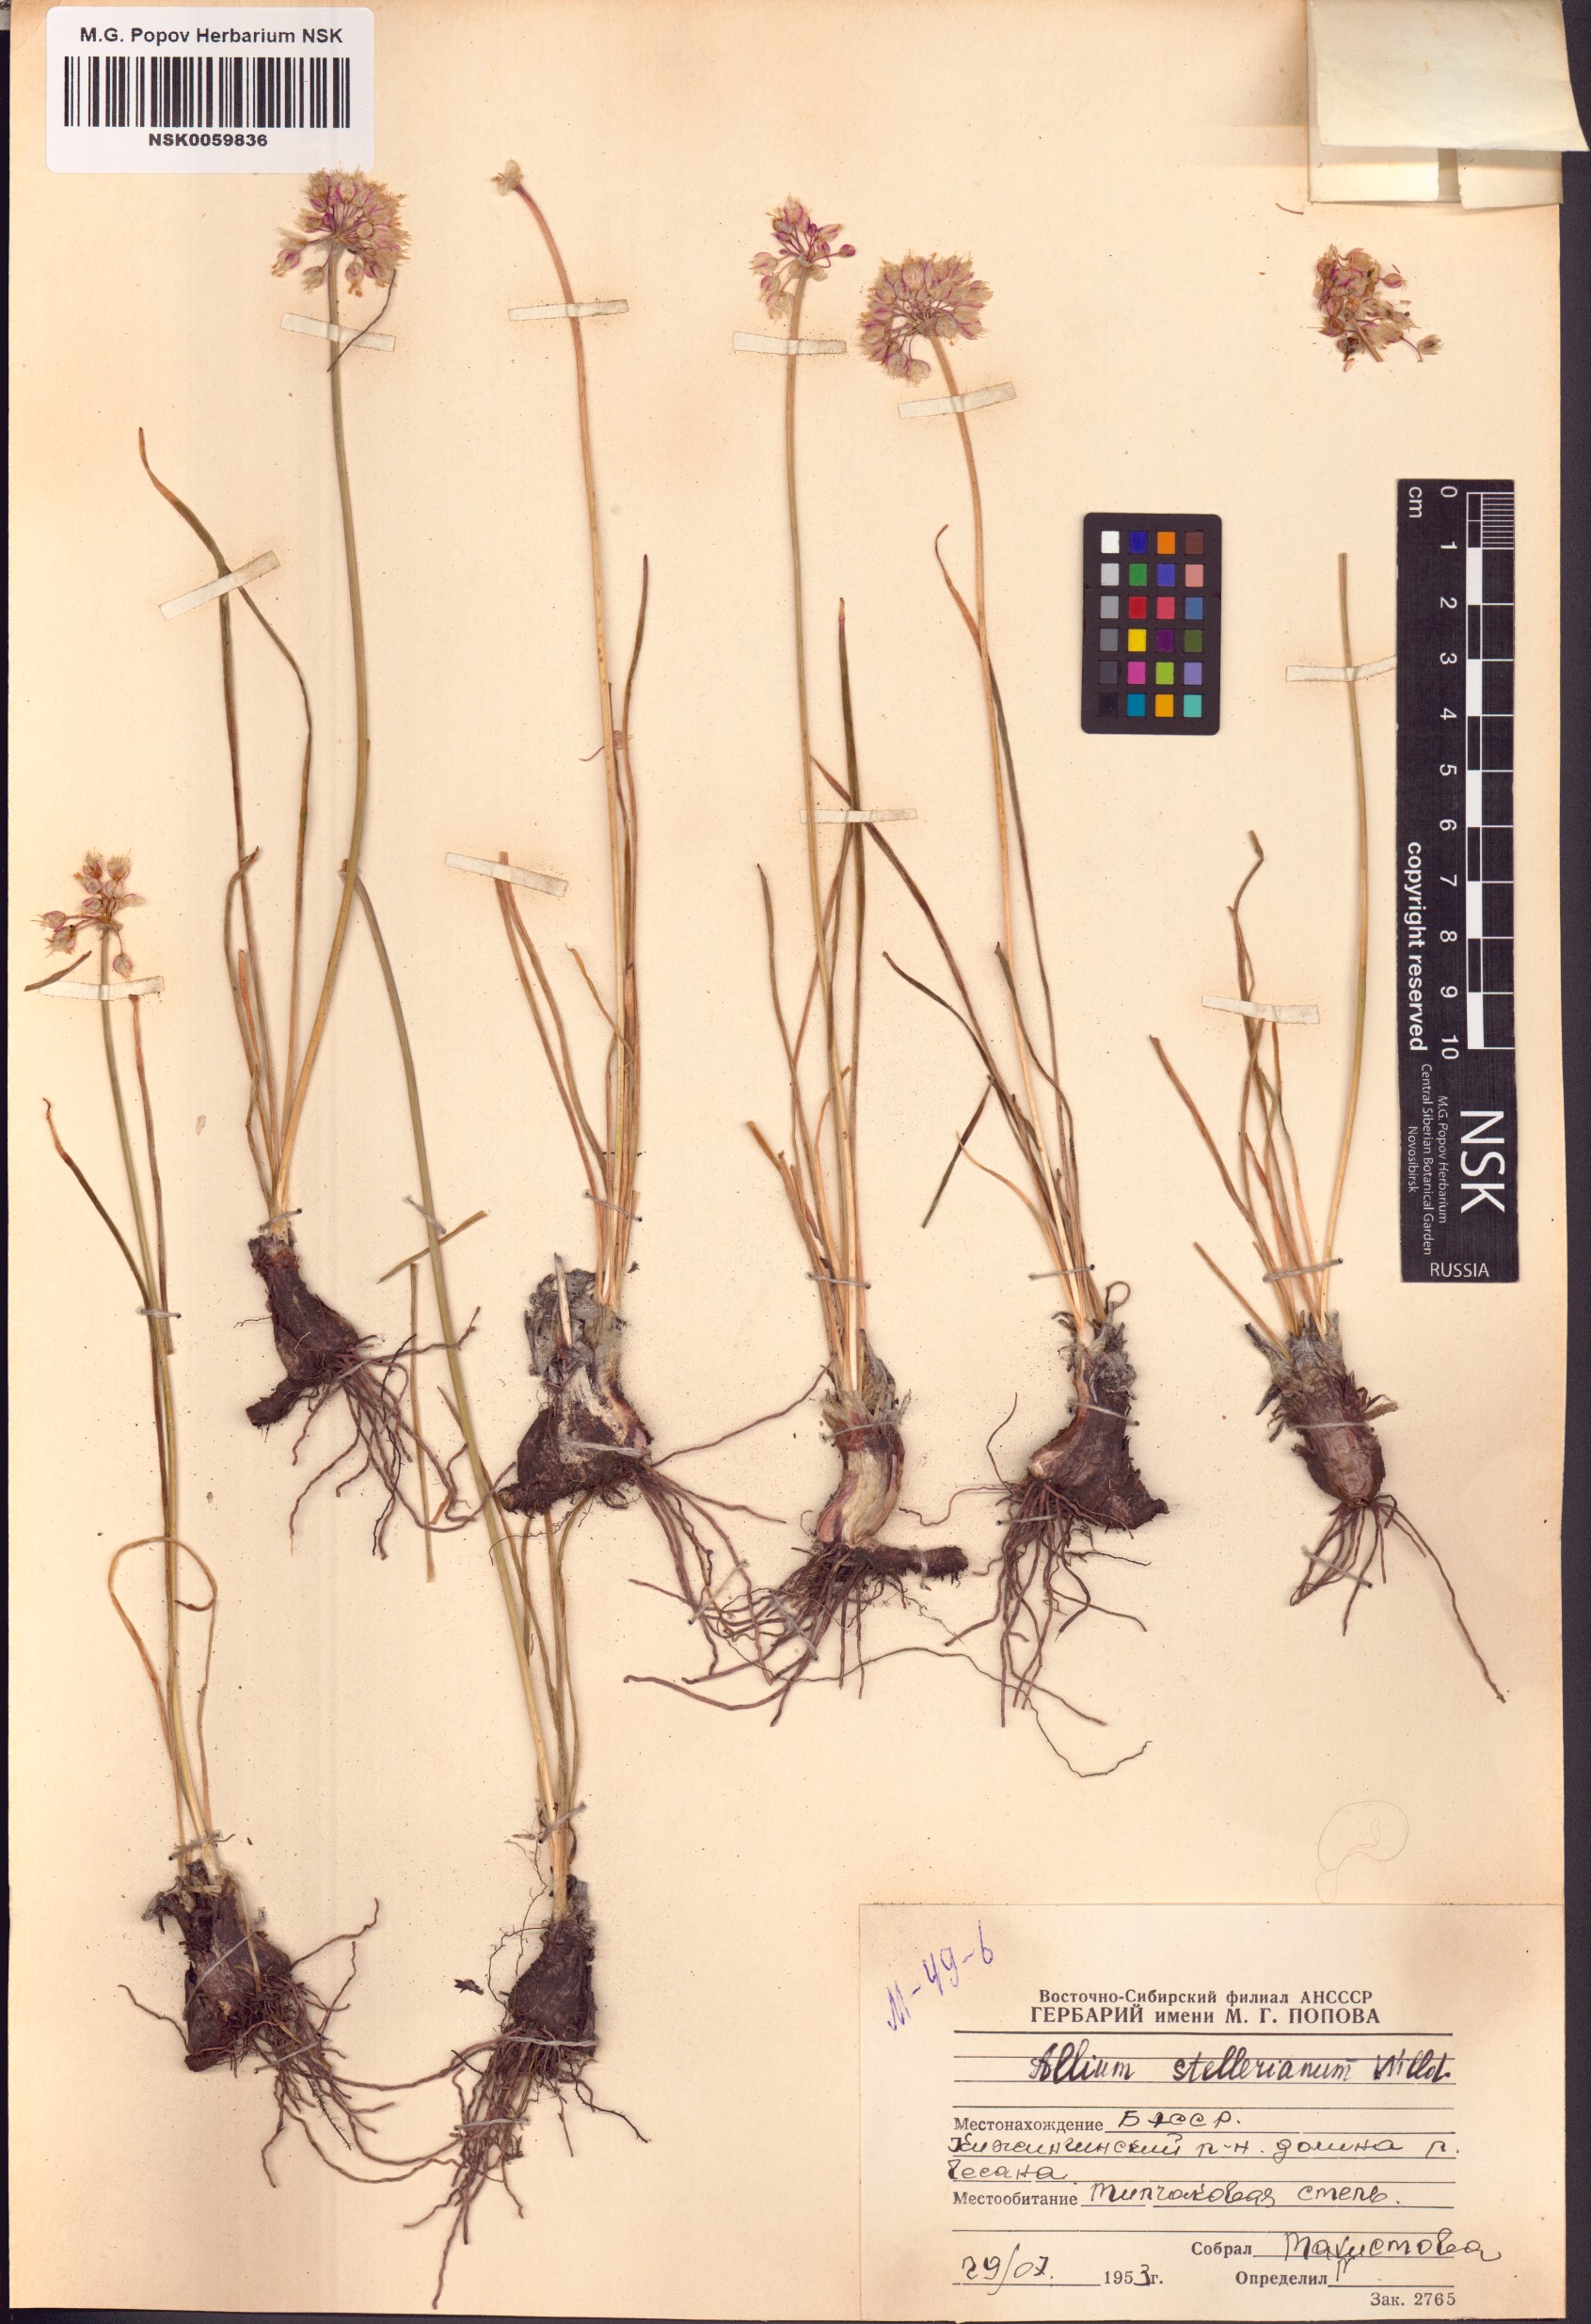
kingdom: Plantae
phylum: Tracheophyta
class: Liliopsida
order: Asparagales
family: Amaryllidaceae
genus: Allium
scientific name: Allium stellerianum
